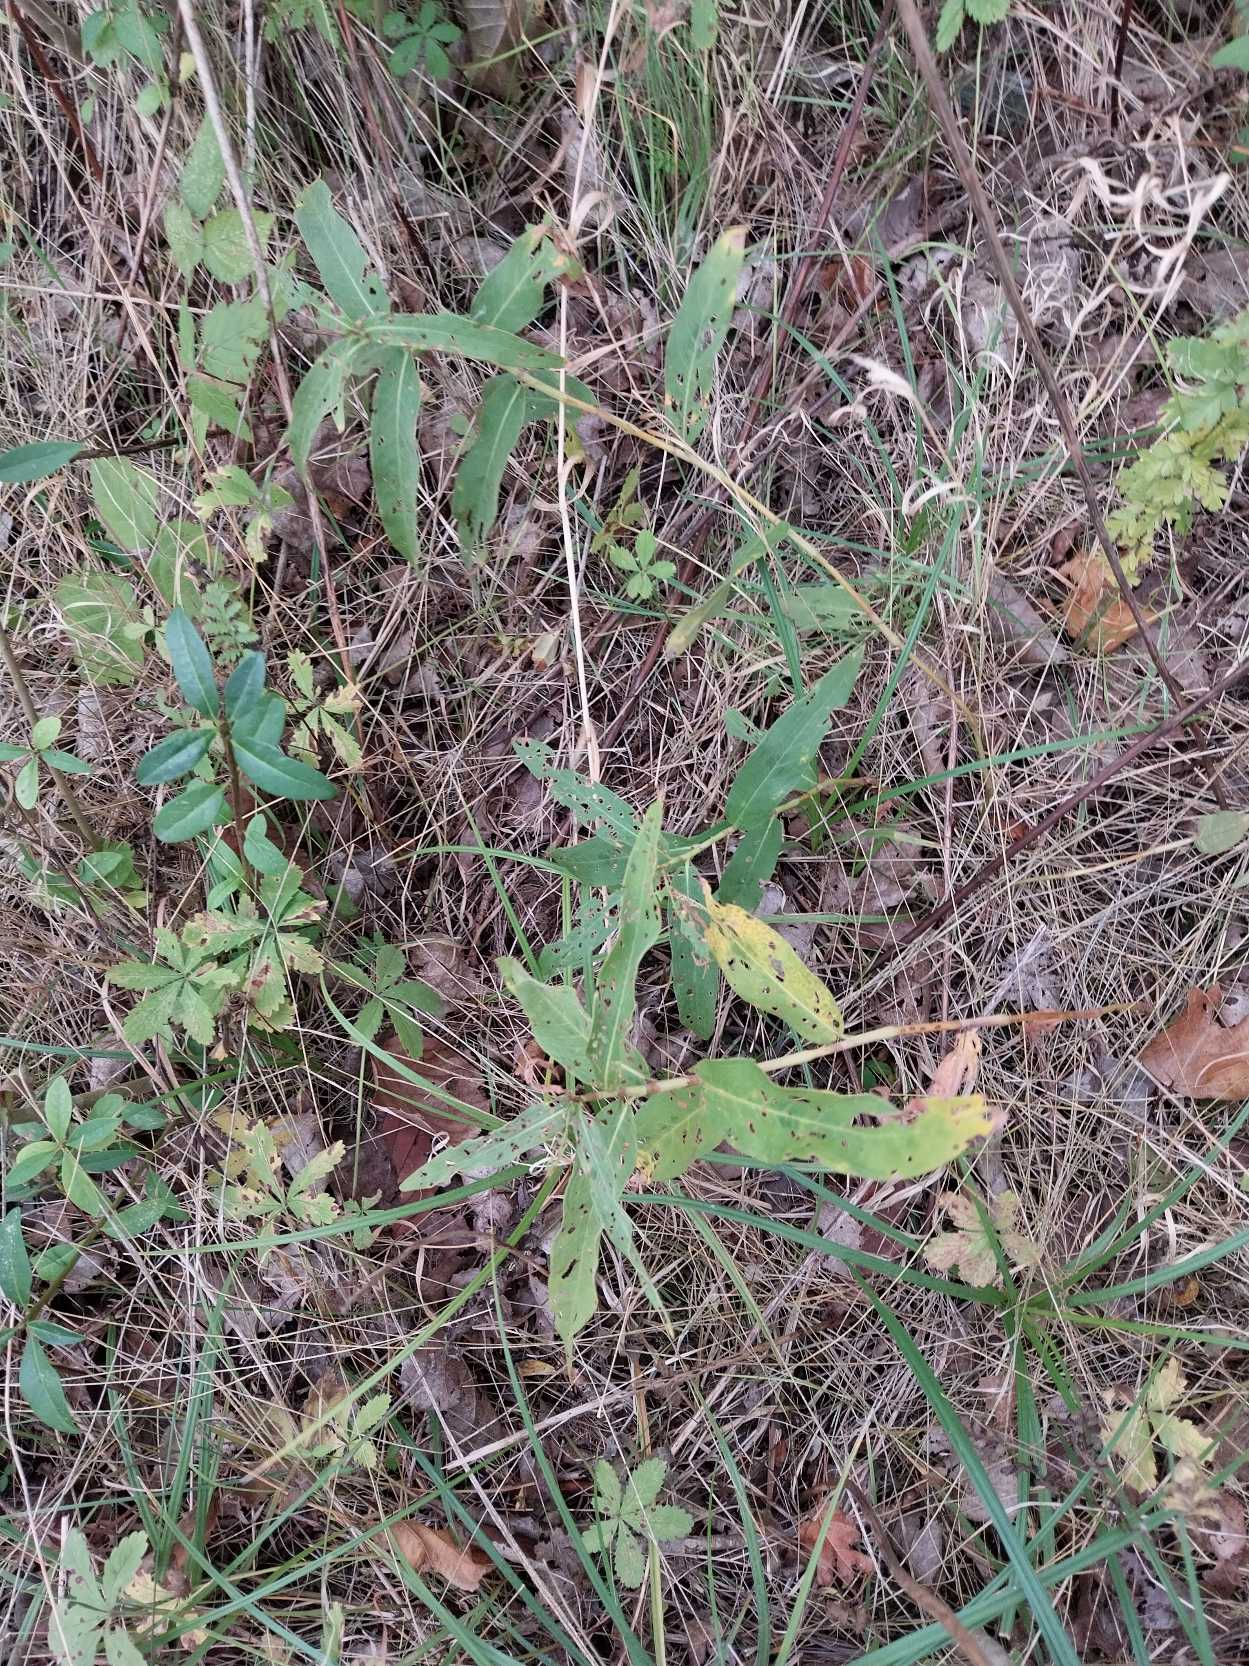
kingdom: Plantae
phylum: Tracheophyta
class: Magnoliopsida
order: Caryophyllales
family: Polygonaceae
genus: Persicaria
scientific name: Persicaria amphibia
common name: Vand-pileurt
